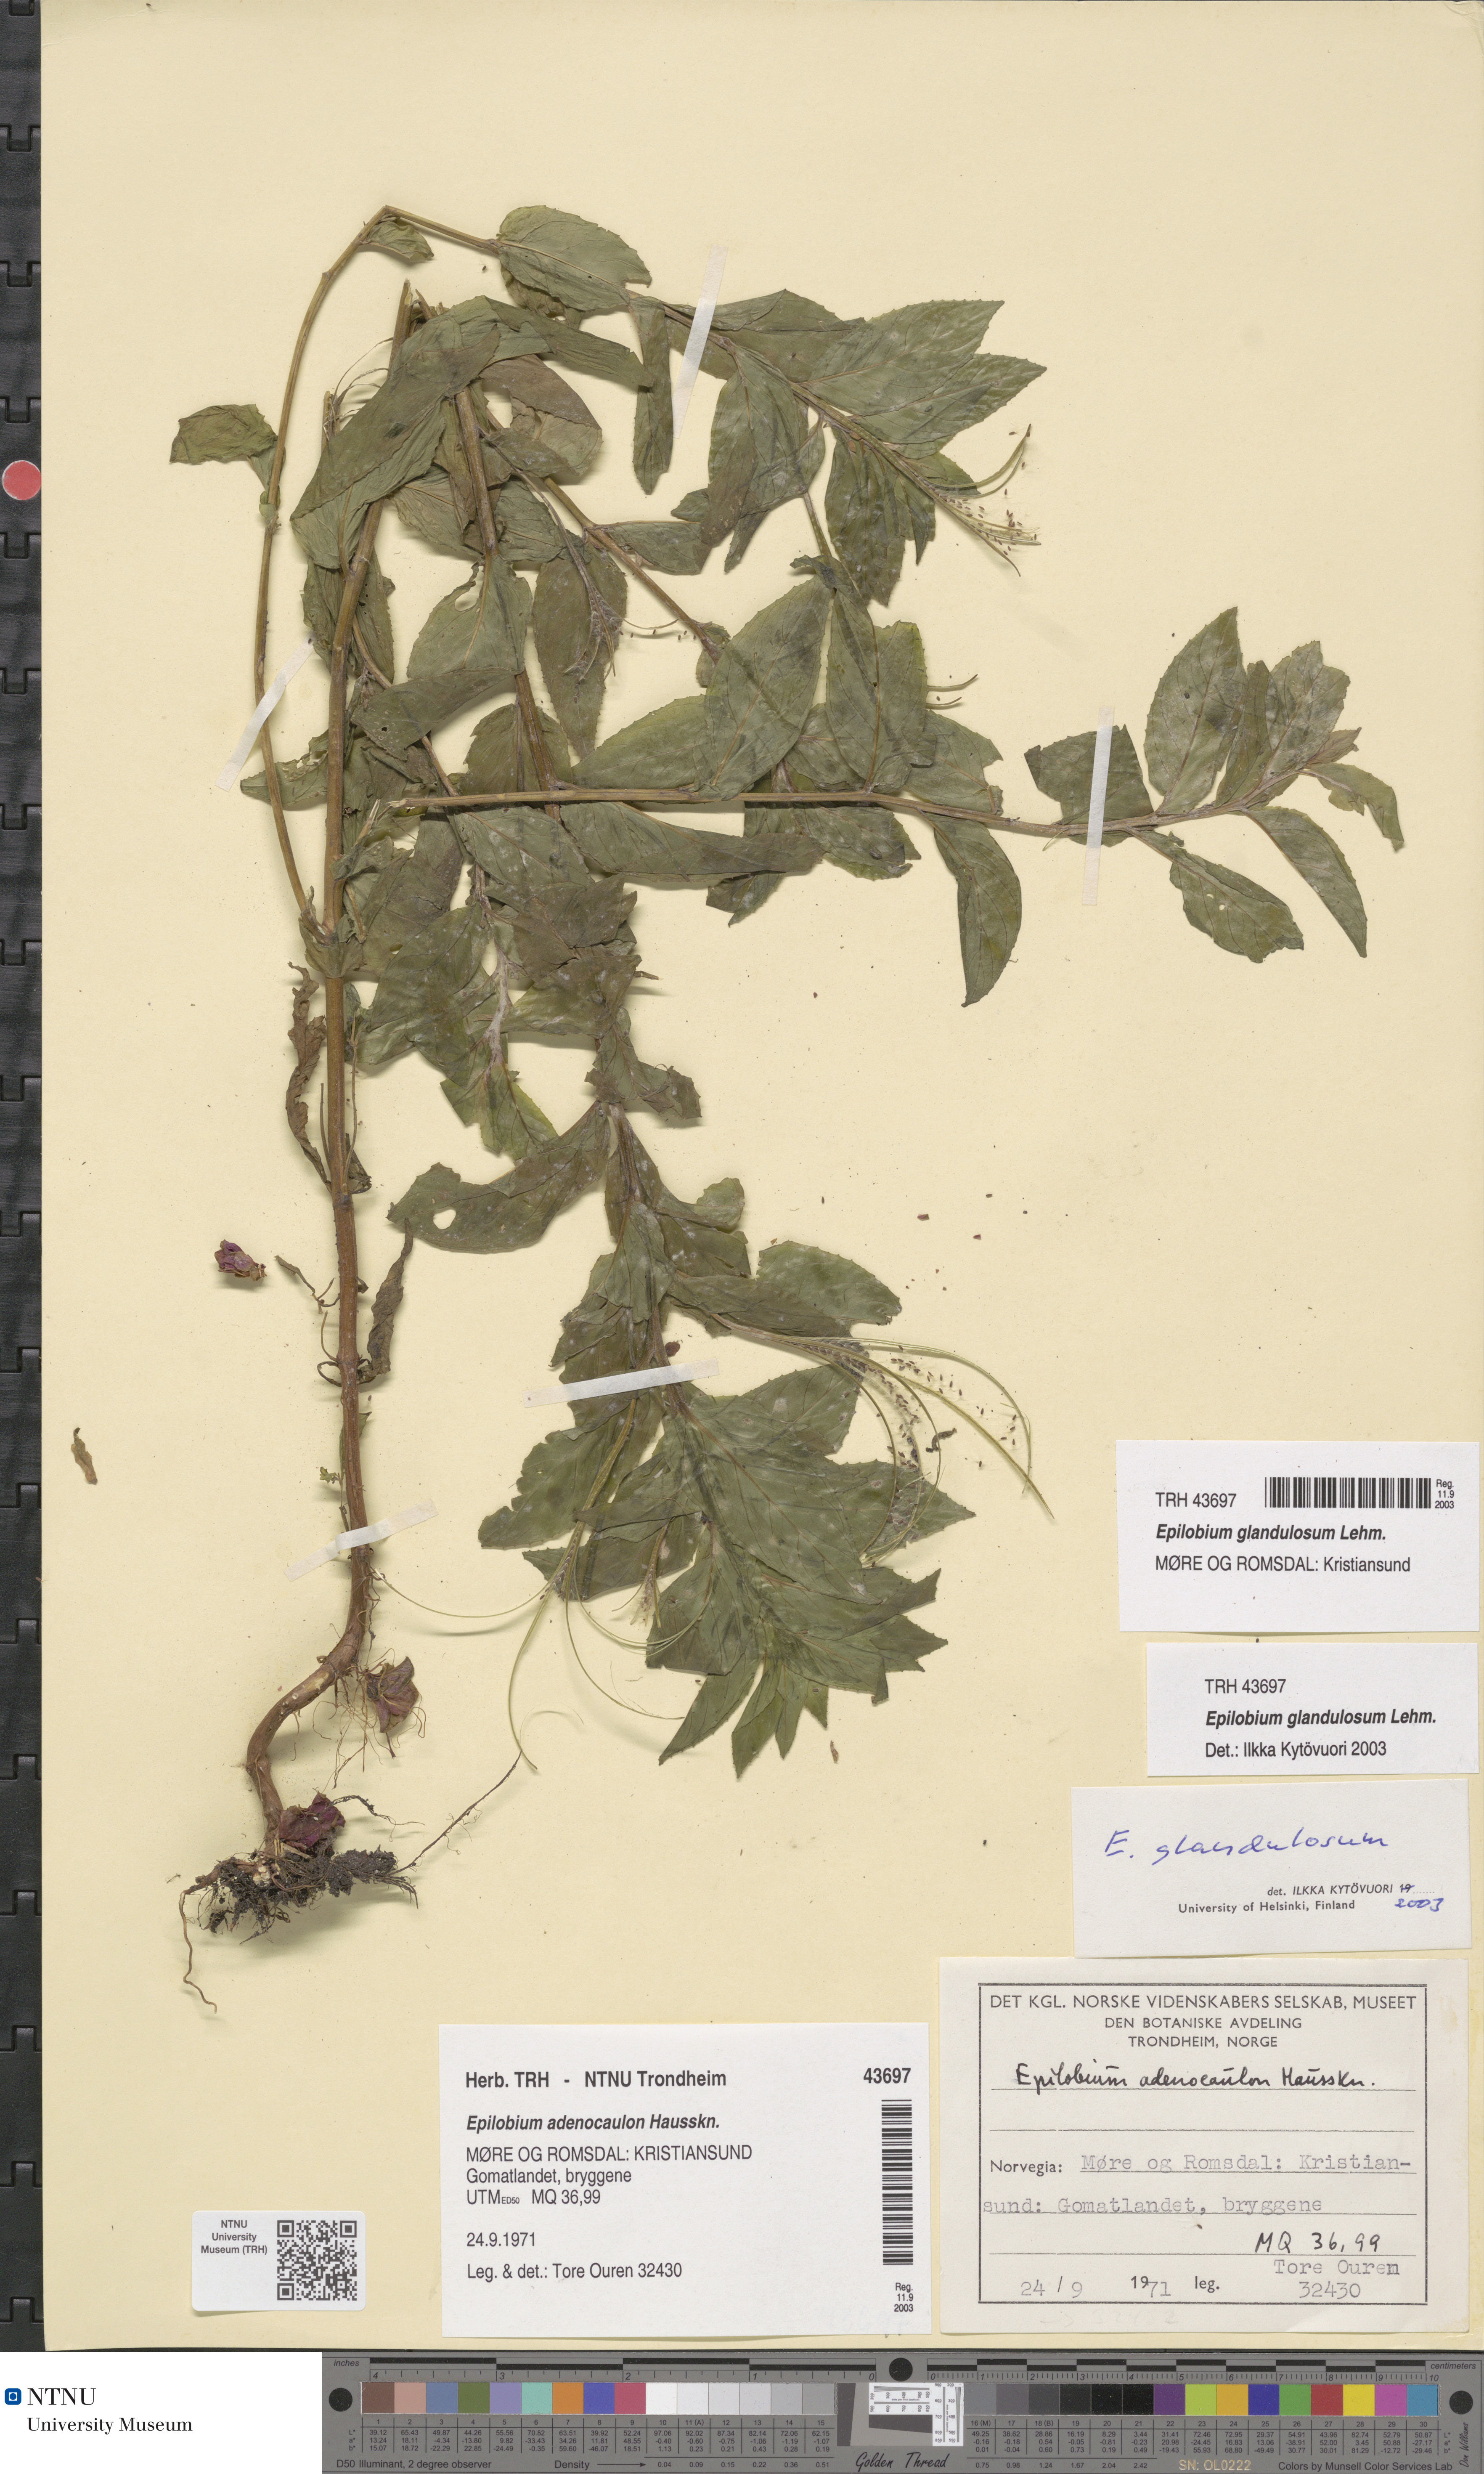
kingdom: Plantae
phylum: Tracheophyta
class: Magnoliopsida
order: Myrtales
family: Onagraceae
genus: Epilobium
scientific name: Epilobium ciliatum
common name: American willowherb
